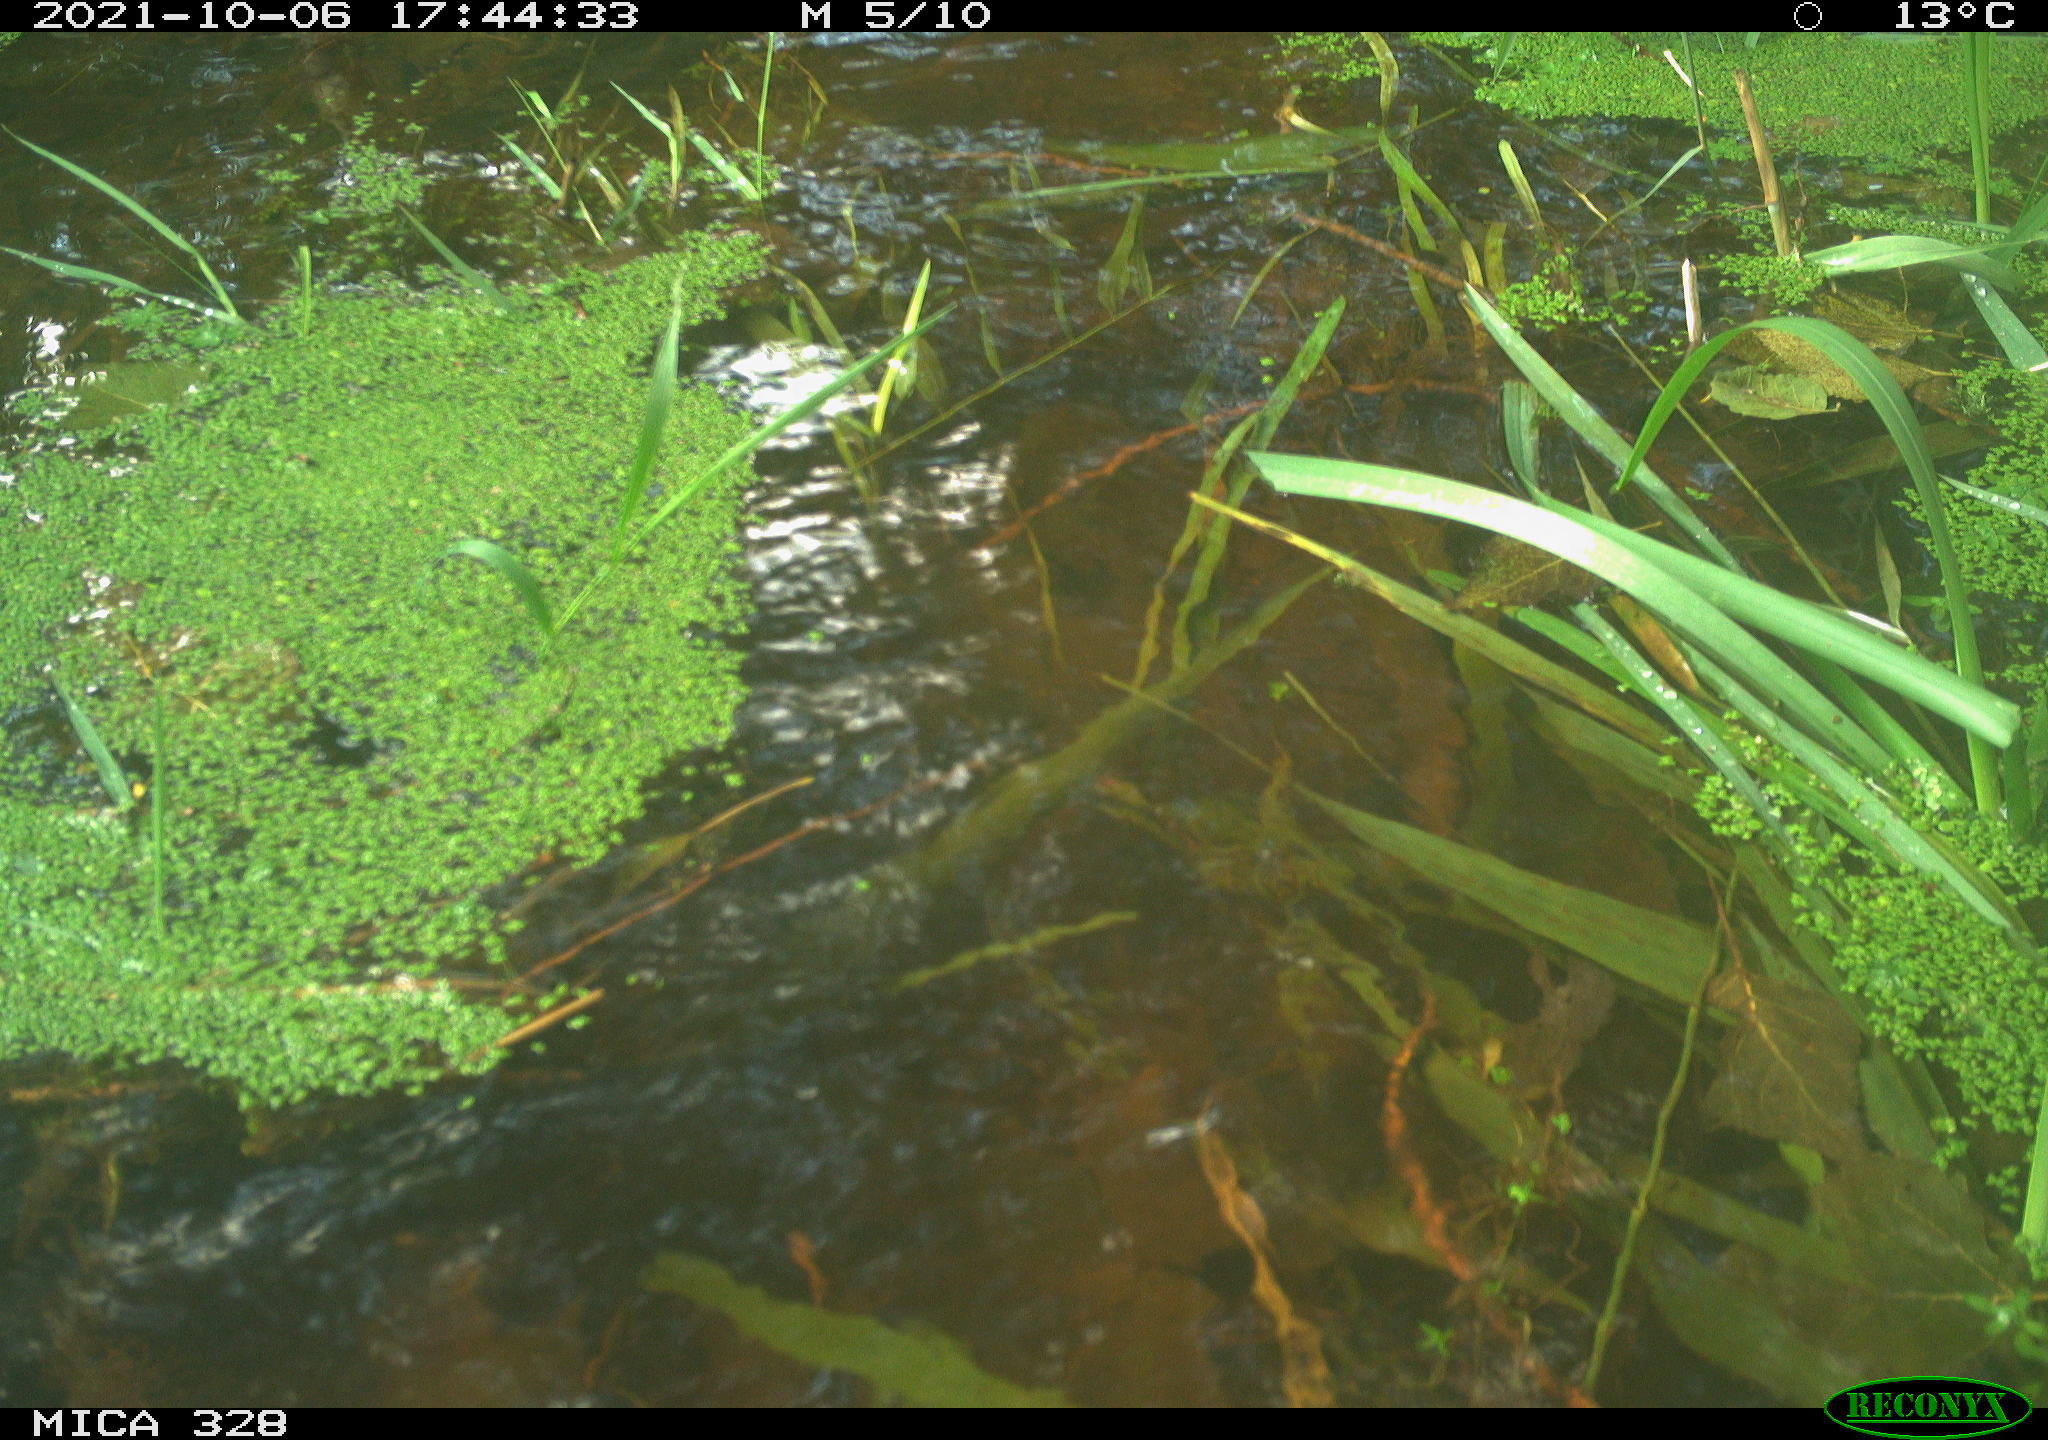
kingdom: Animalia
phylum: Chordata
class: Mammalia
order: Rodentia
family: Cricetidae
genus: Ondatra
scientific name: Ondatra zibethicus
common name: Muskrat
